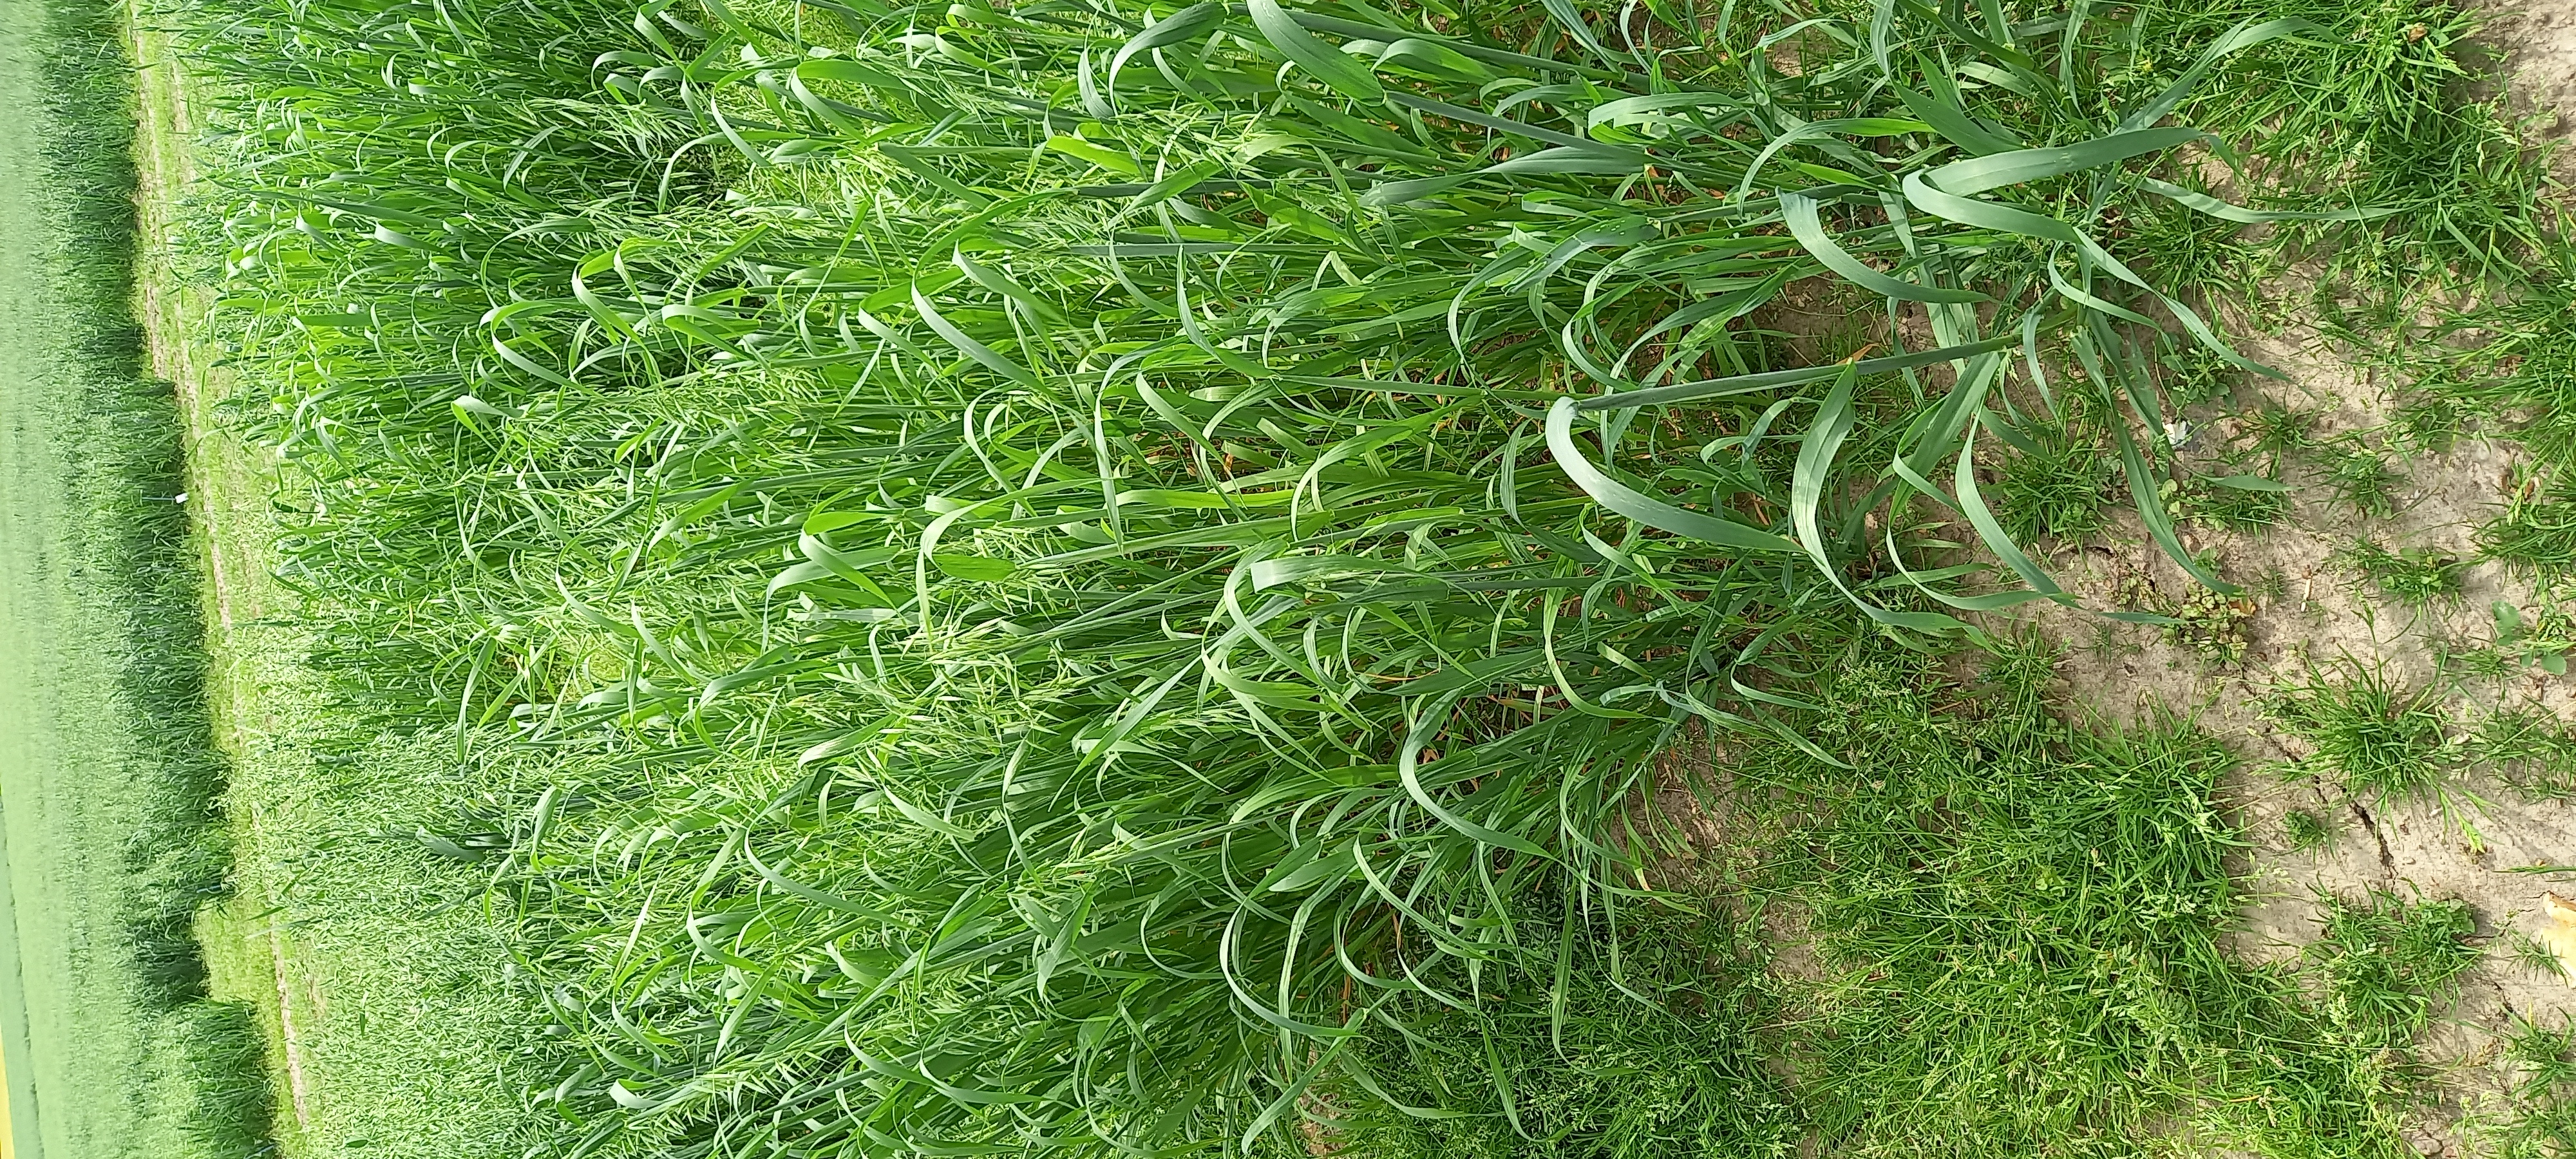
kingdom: Plantae
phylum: Tracheophyta
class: Liliopsida
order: Poales
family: Poaceae
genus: Avena
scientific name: Avena sativa
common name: Oat
